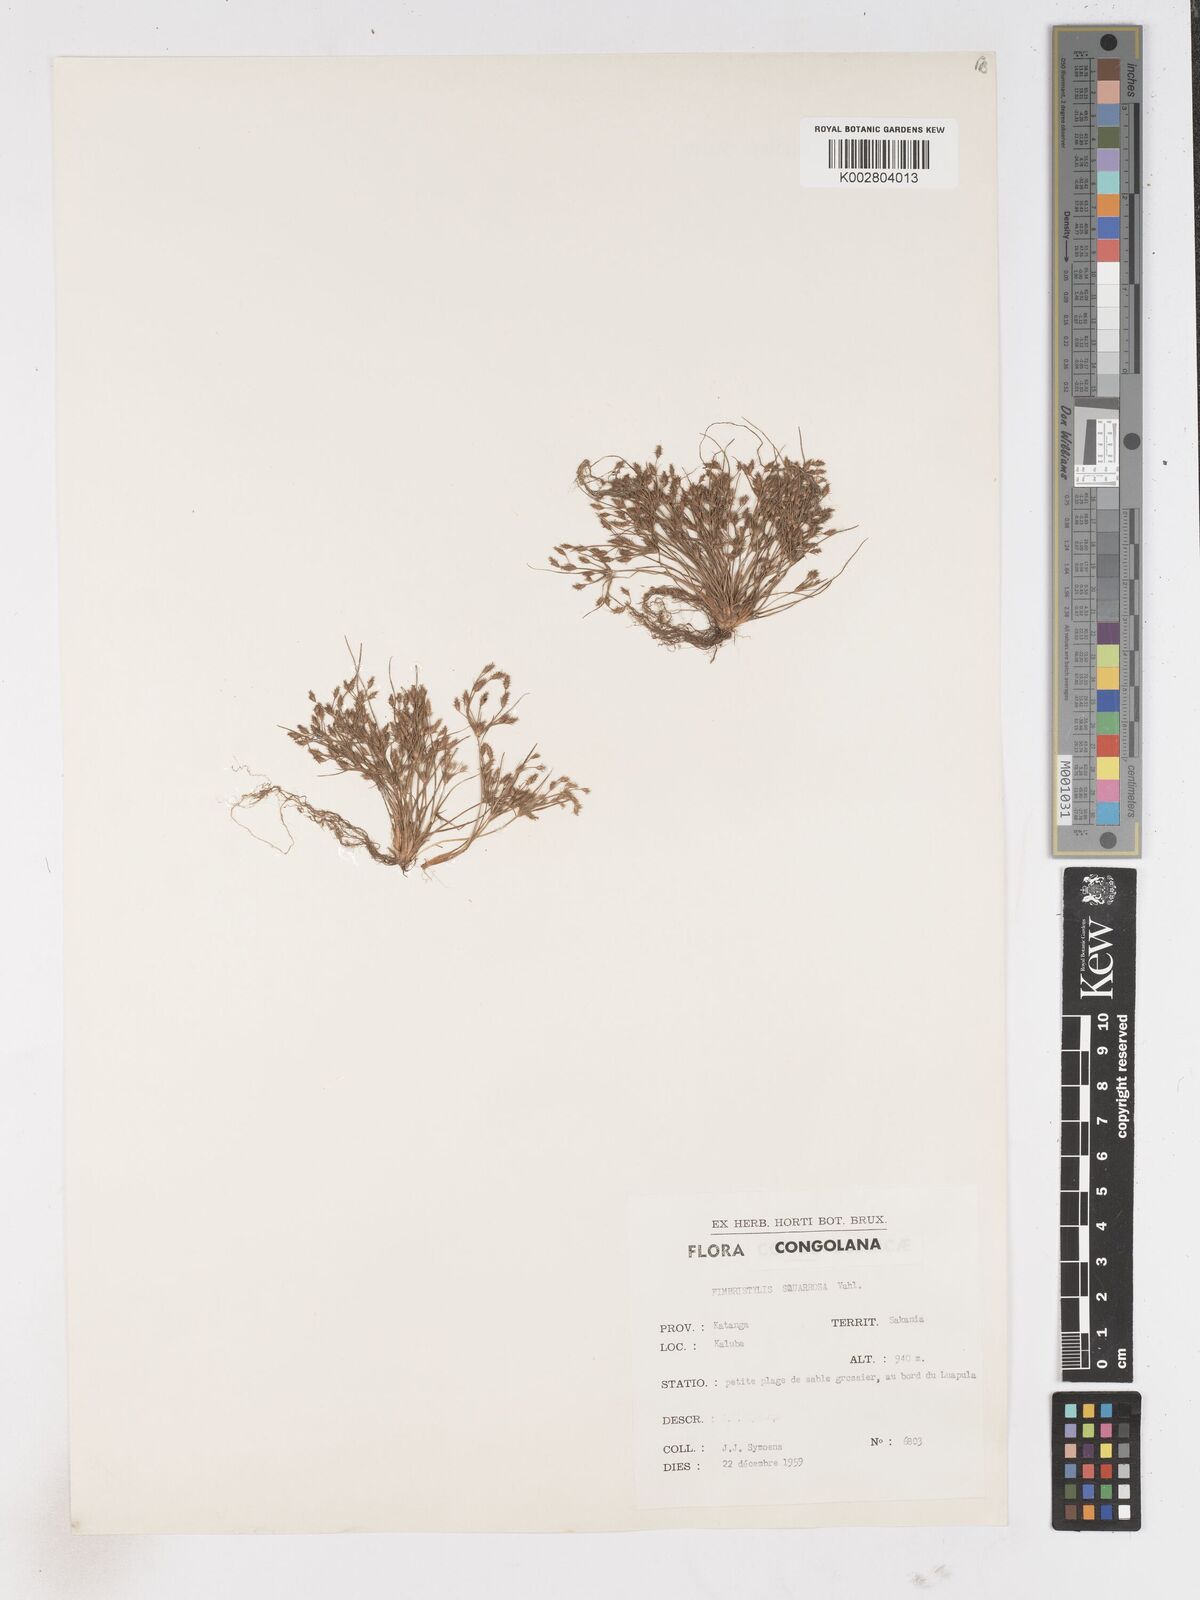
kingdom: Plantae
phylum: Tracheophyta
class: Liliopsida
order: Poales
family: Cyperaceae
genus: Fimbristylis
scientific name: Fimbristylis squarrosa
